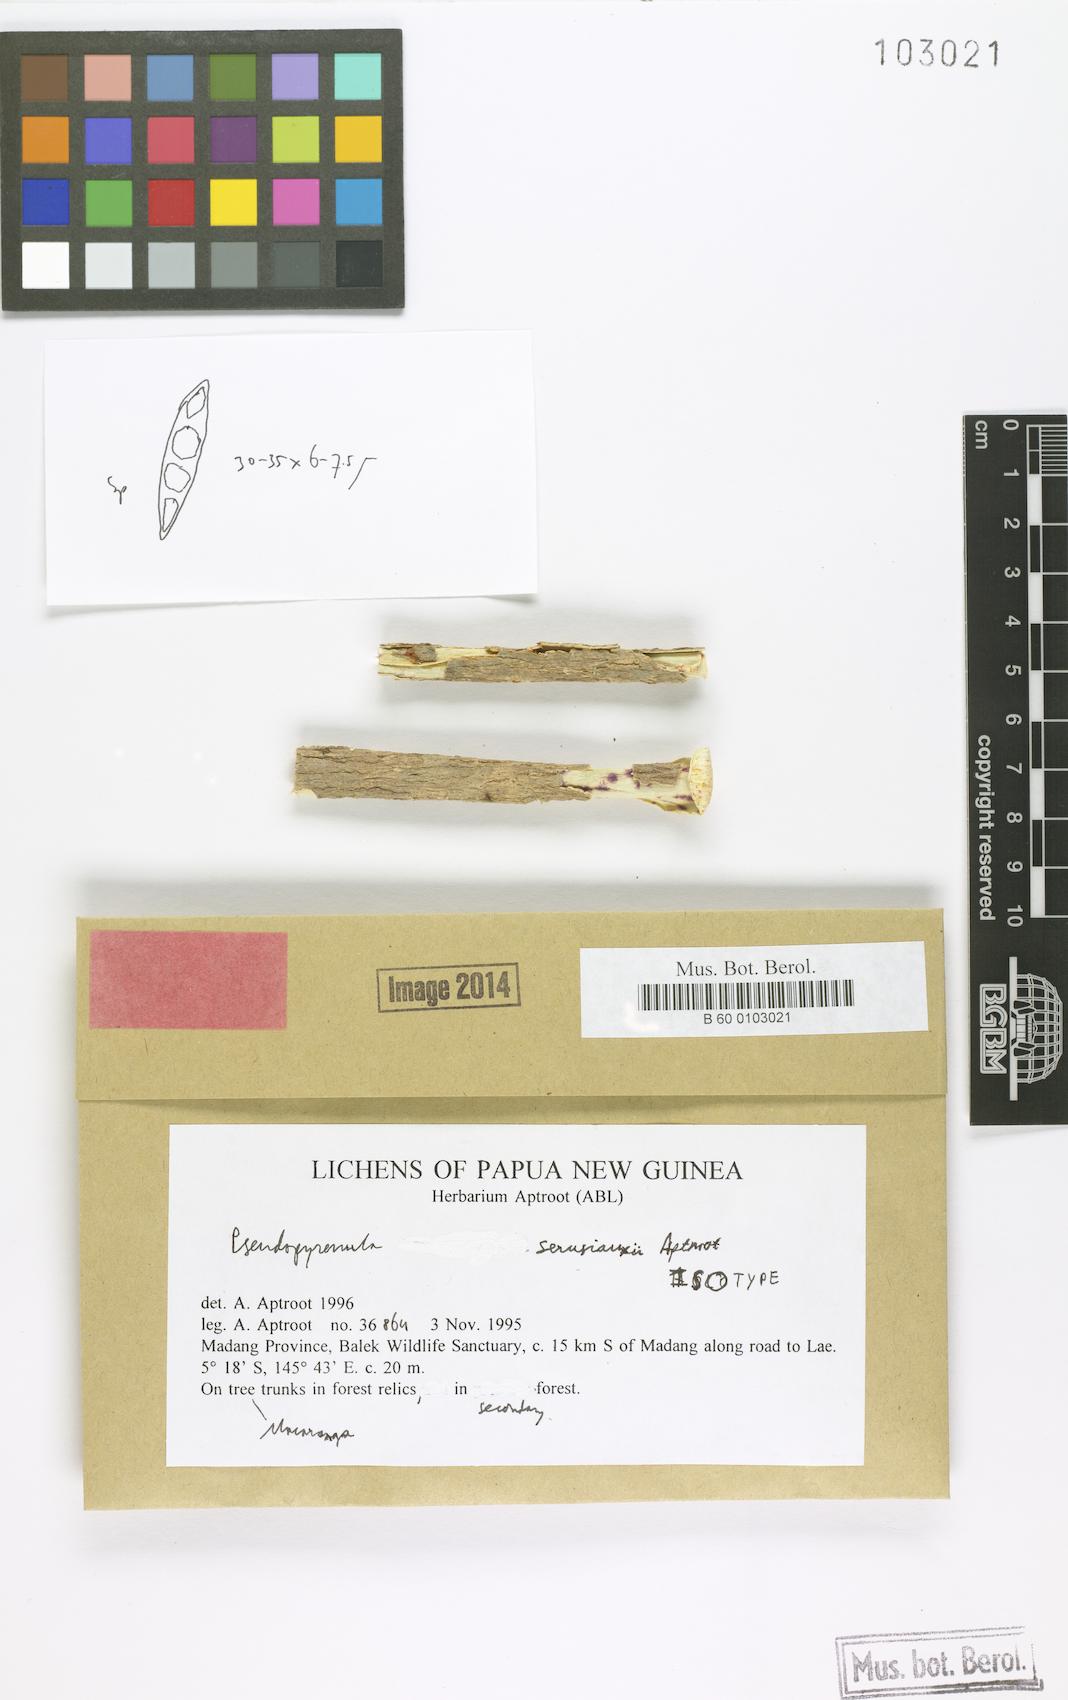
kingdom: Fungi
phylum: Ascomycota
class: Dothideomycetes
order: Trypetheliales
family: Trypetheliaceae
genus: Pseudopyrenula
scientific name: Pseudopyrenula
